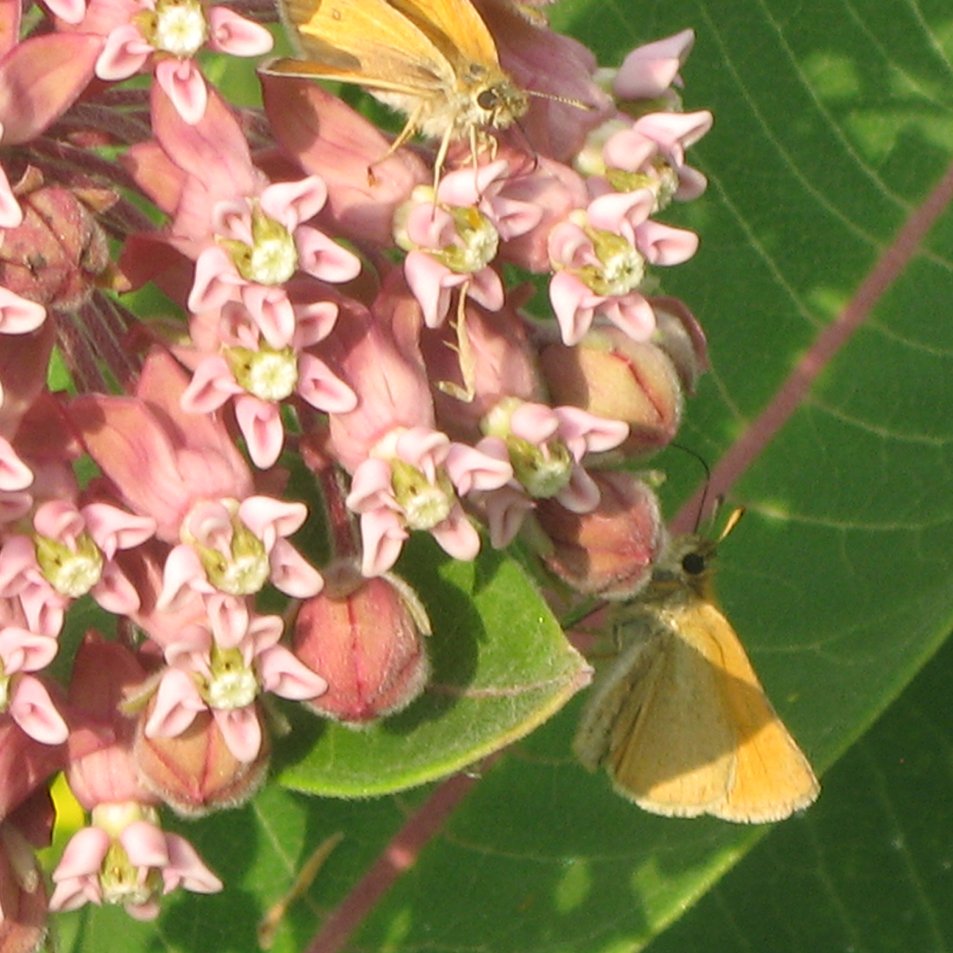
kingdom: Animalia
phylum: Arthropoda
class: Insecta
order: Lepidoptera
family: Hesperiidae
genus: Thymelicus
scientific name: Thymelicus lineola
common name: European Skipper
